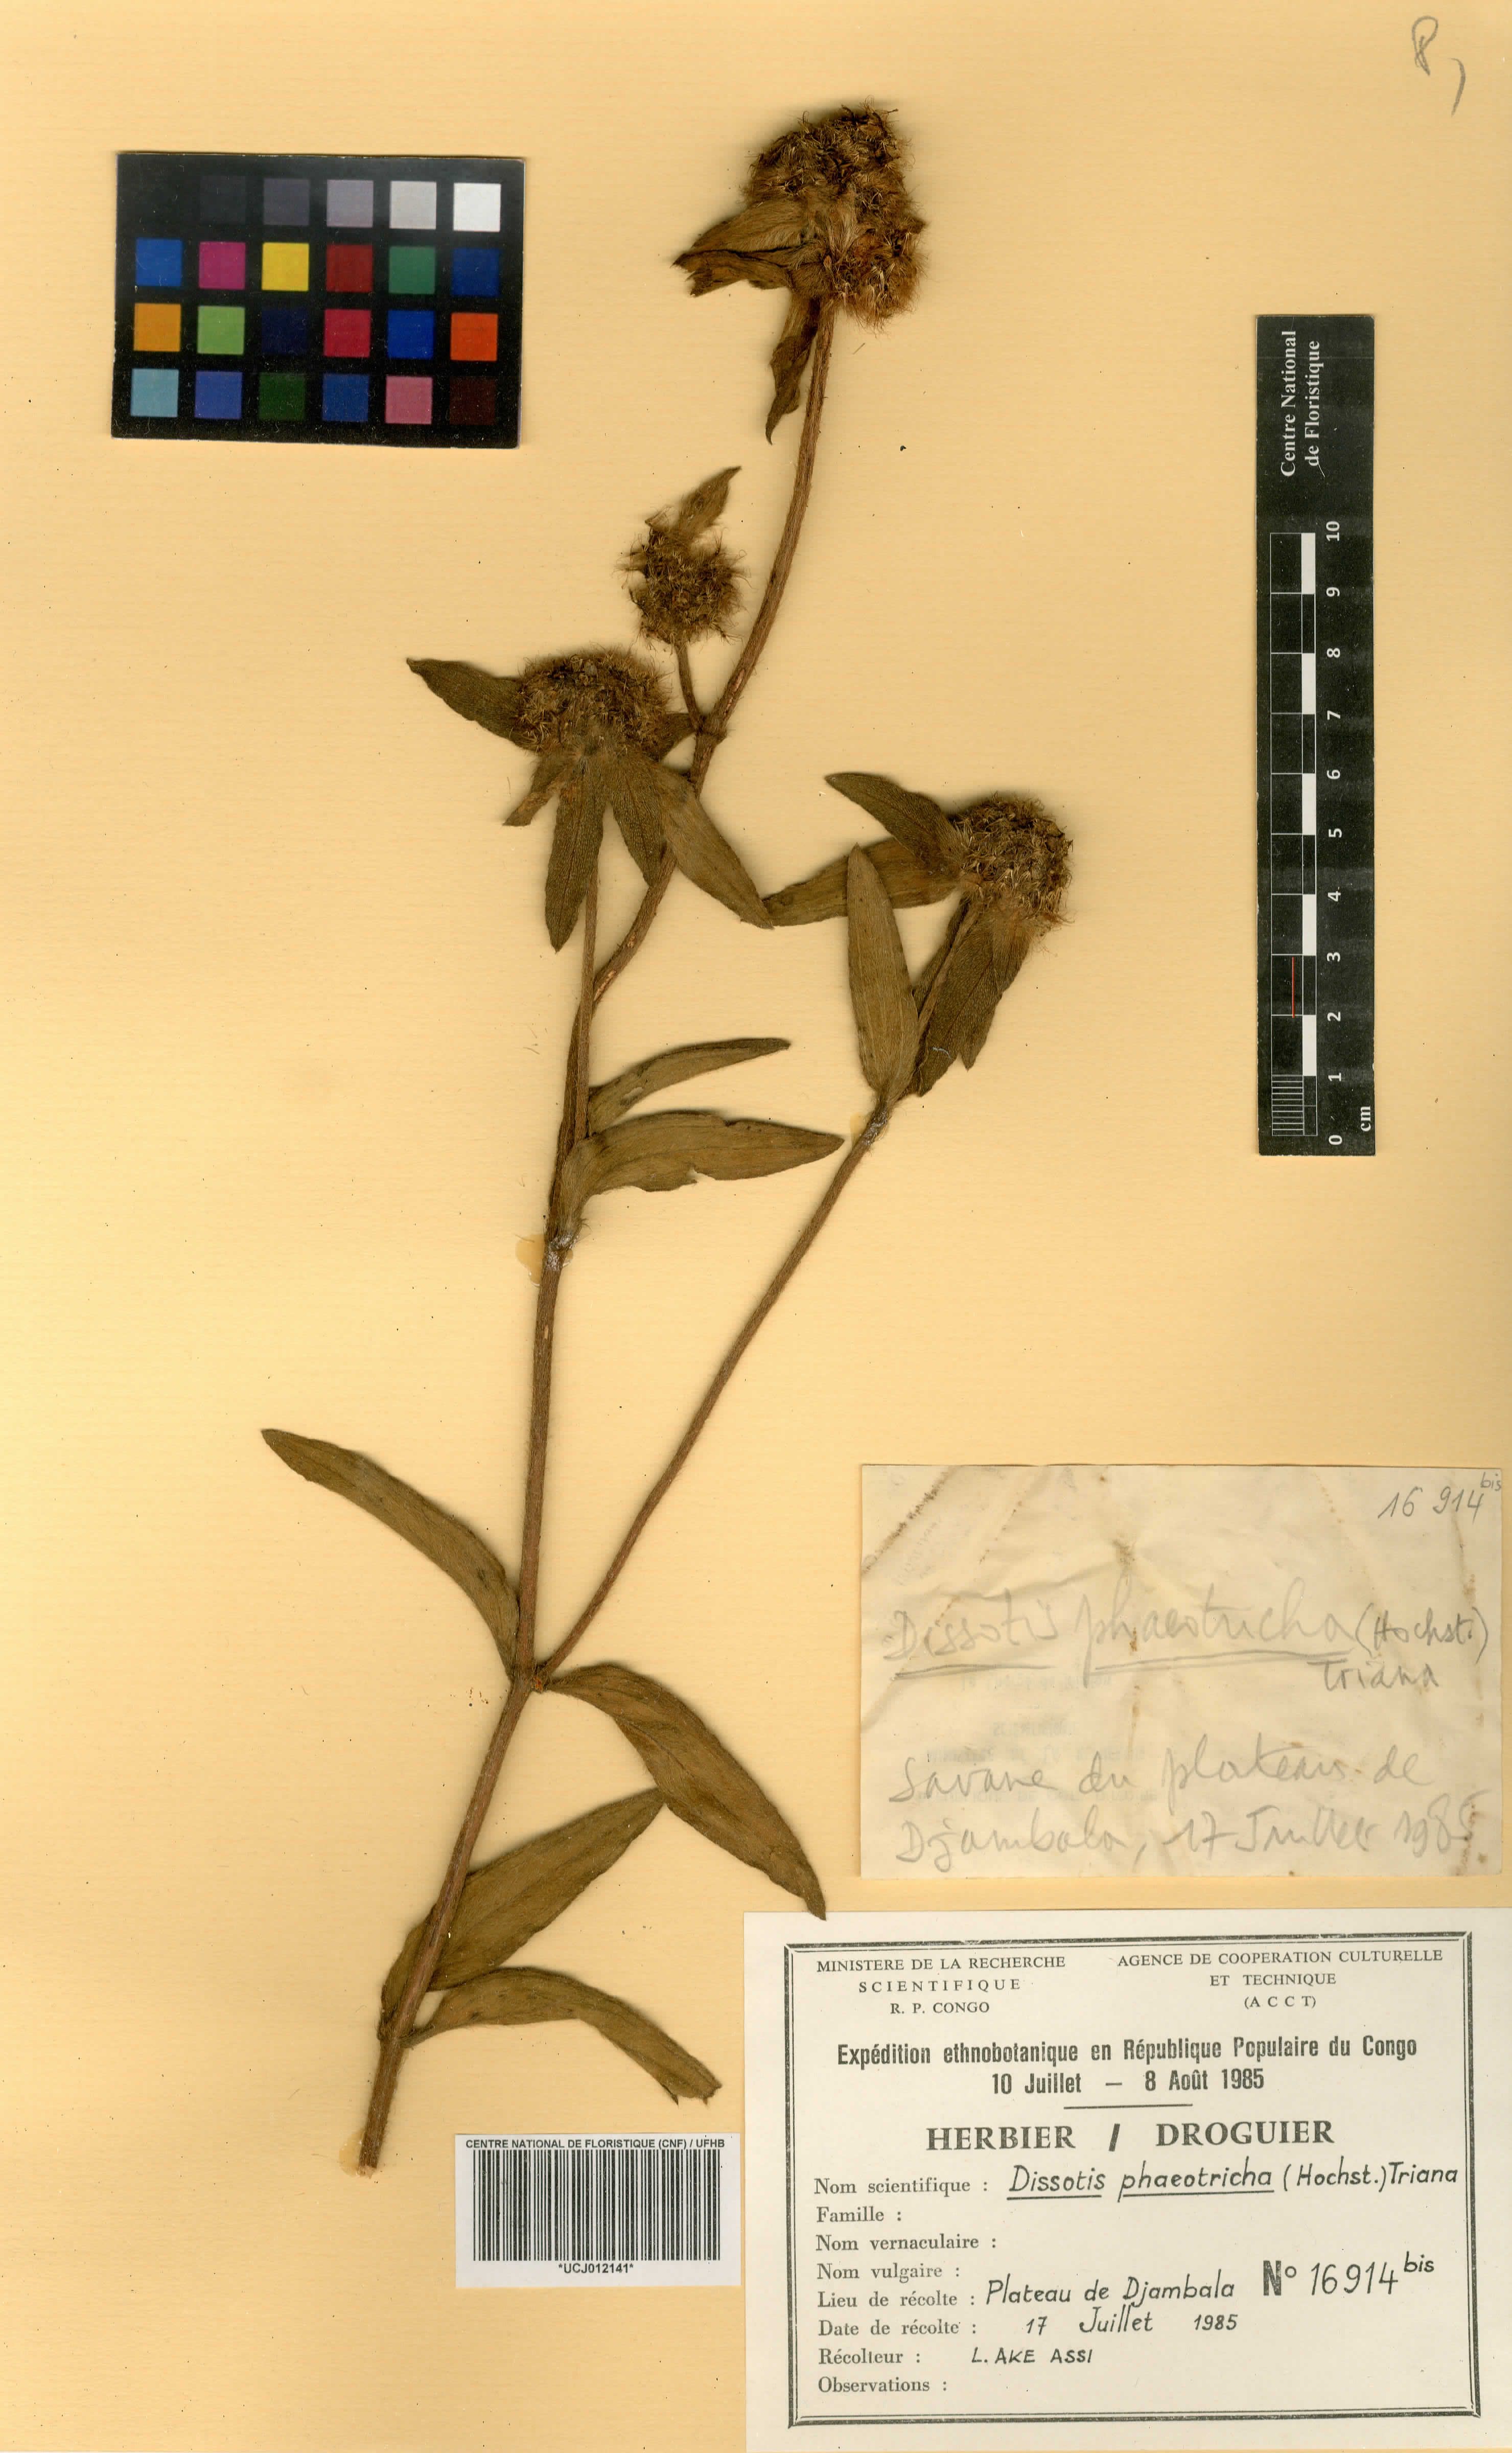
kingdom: Plantae
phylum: Tracheophyta
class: Magnoliopsida
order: Myrtales
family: Melastomataceae
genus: Antherotoma
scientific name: Antherotoma phaeotricha
